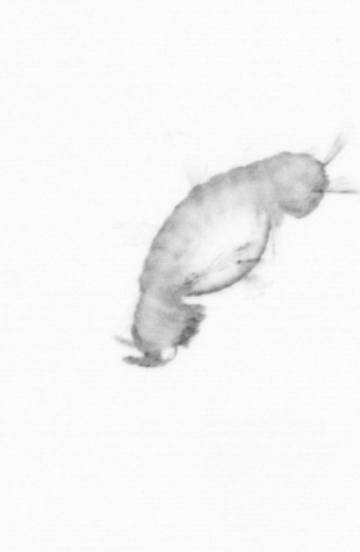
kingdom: Animalia
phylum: Annelida
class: Polychaeta
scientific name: Polychaeta
